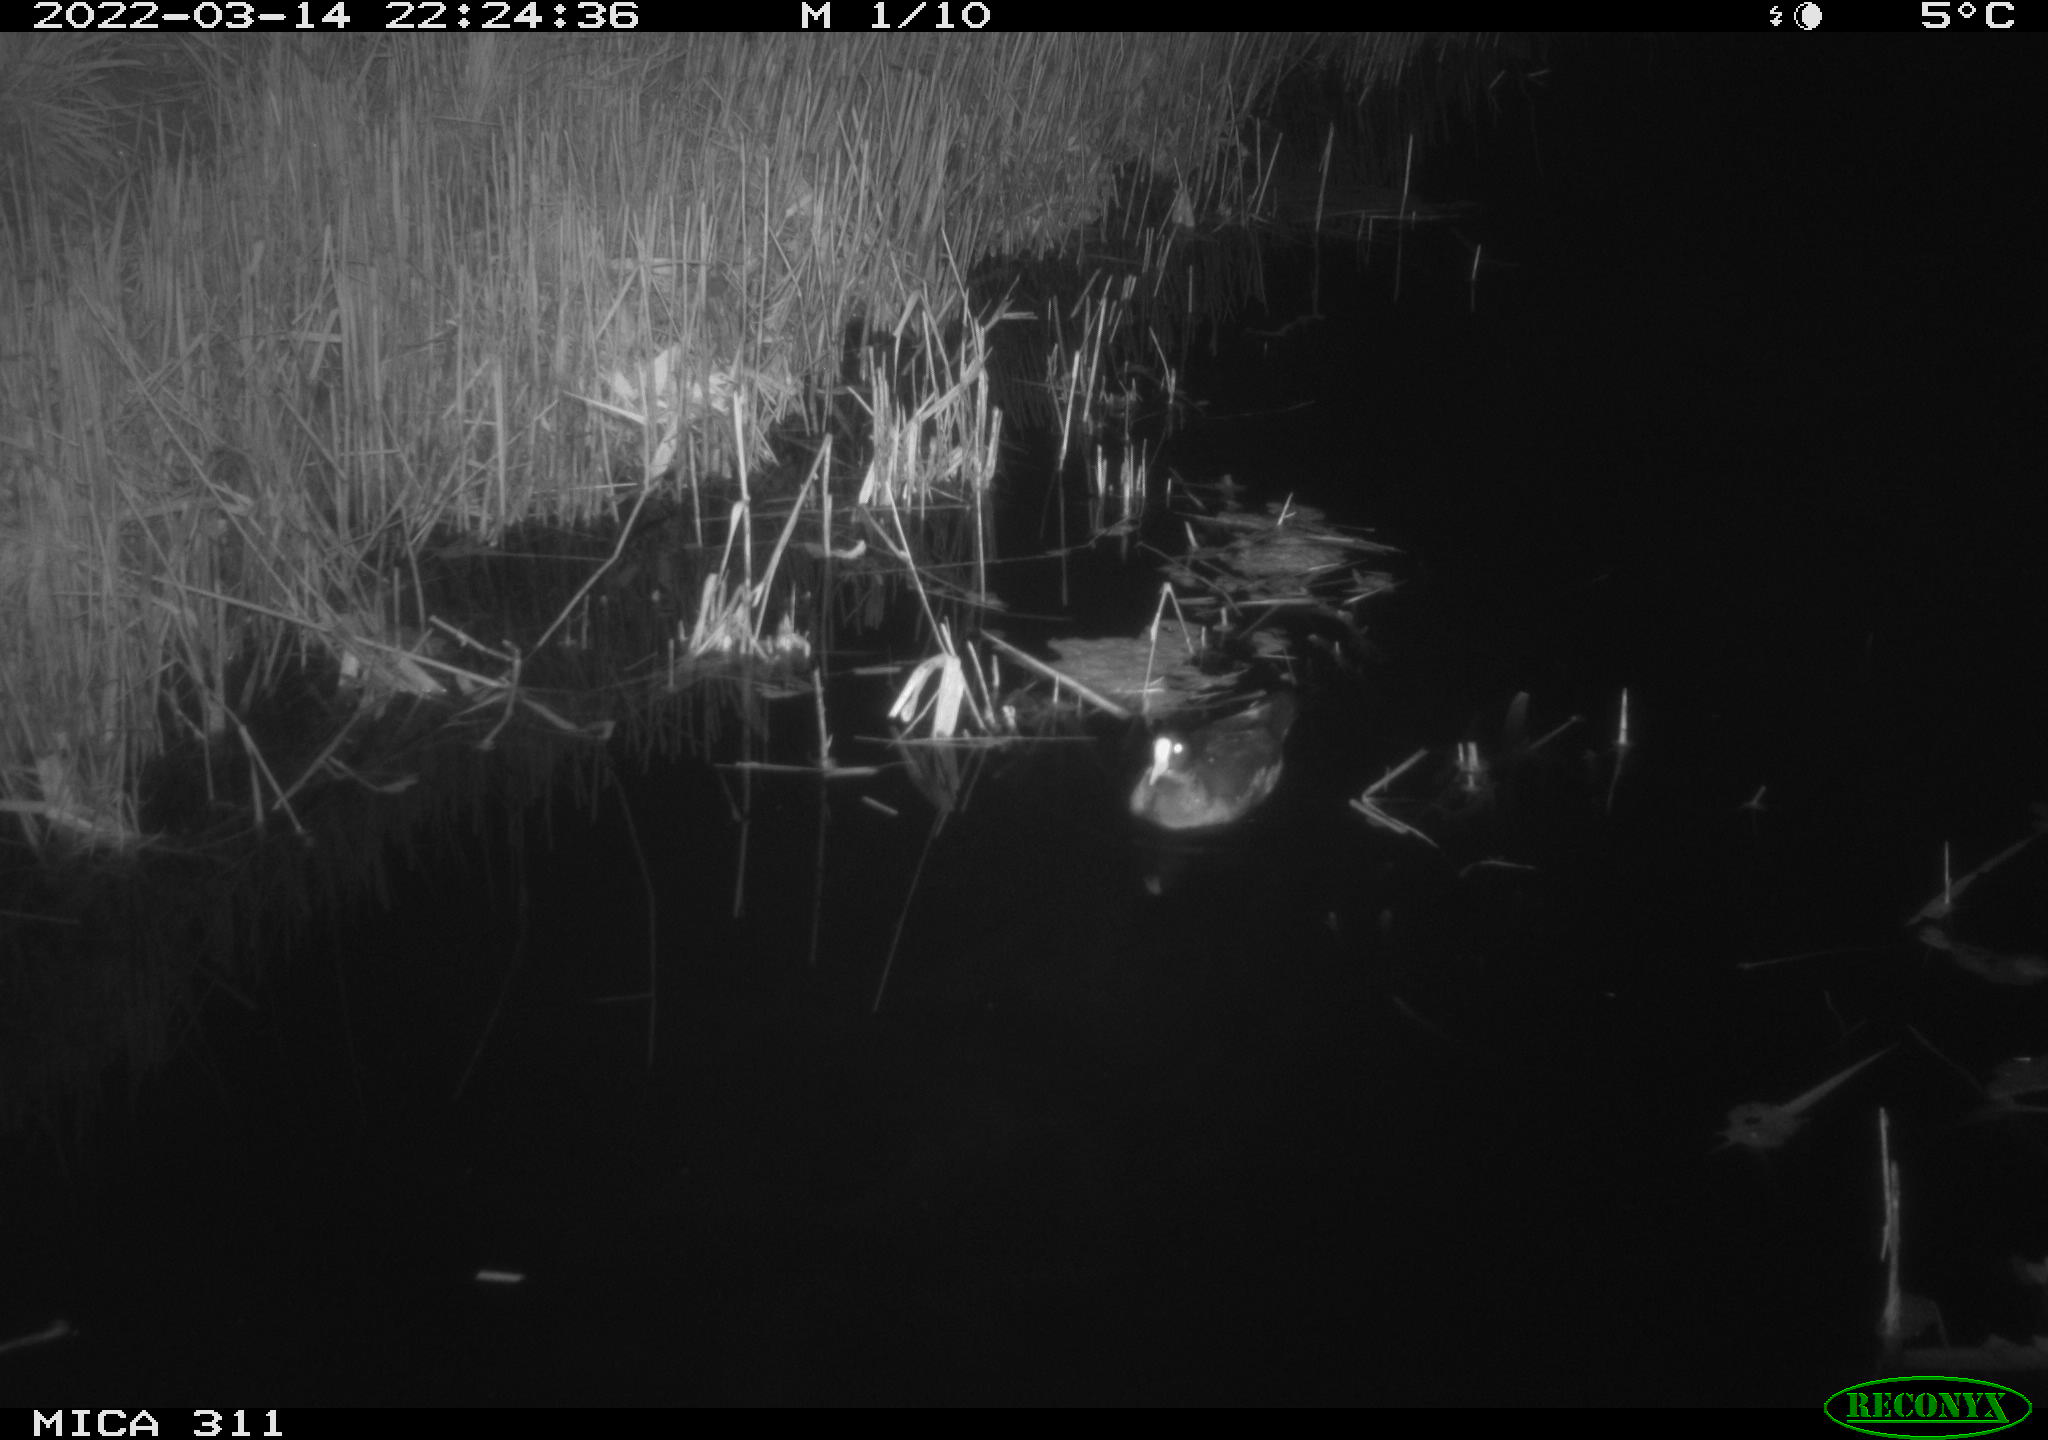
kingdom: Animalia
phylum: Chordata
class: Aves
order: Gruiformes
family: Rallidae
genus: Gallinula
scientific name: Gallinula chloropus
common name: Common moorhen
